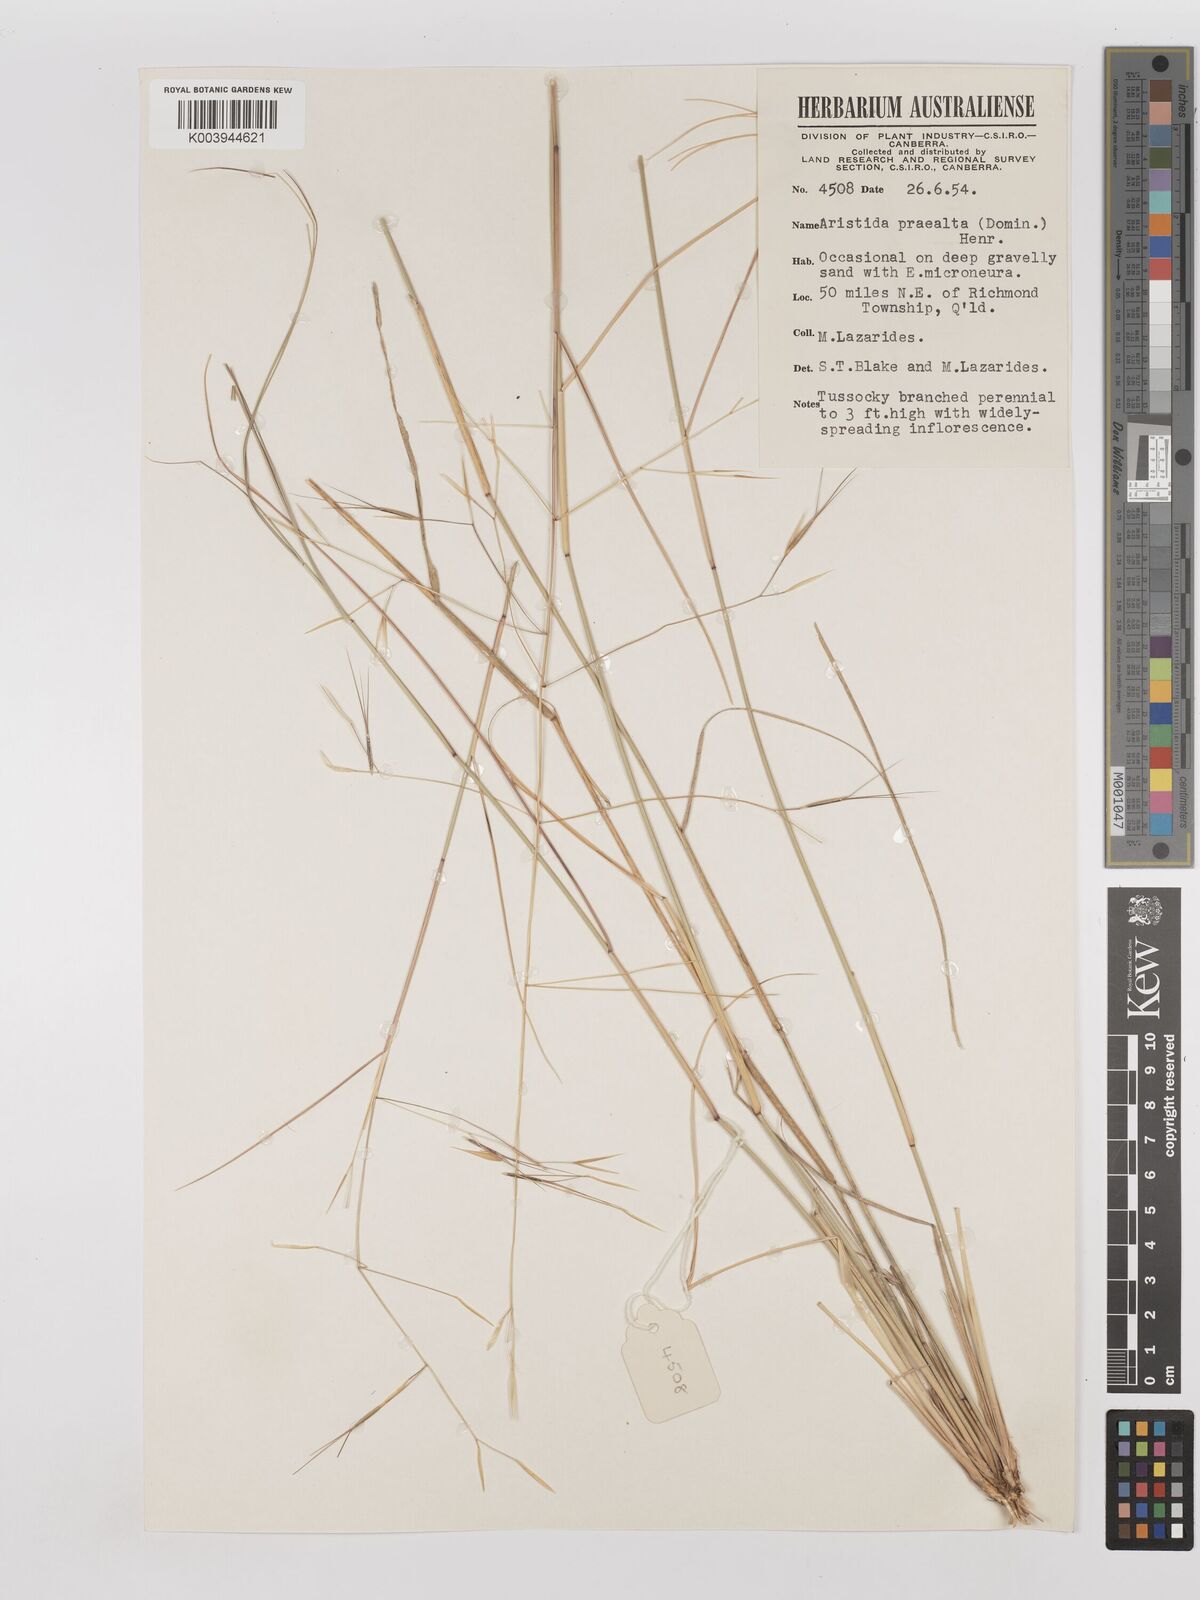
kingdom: Plantae
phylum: Tracheophyta
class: Liliopsida
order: Poales
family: Poaceae
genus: Aristida
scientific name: Aristida calycina
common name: Dark wire grass
